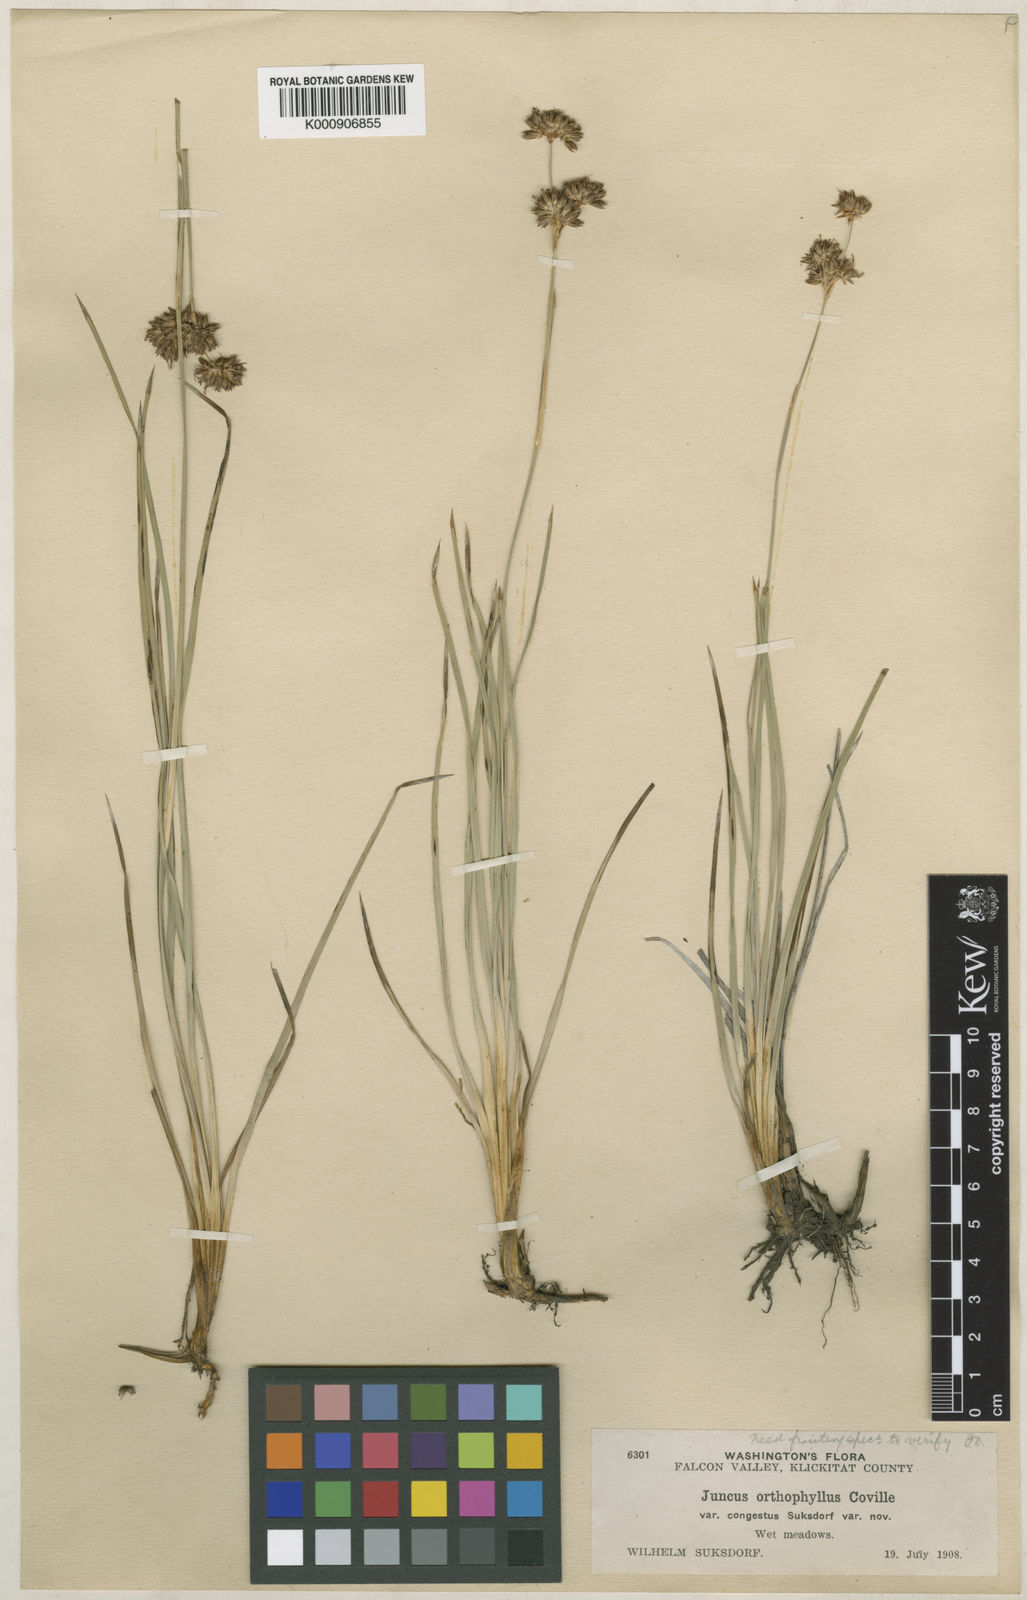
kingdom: Plantae
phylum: Tracheophyta
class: Liliopsida
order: Poales
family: Juncaceae
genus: Juncus
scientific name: Juncus orthophyllus
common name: Straight-leaf rush
